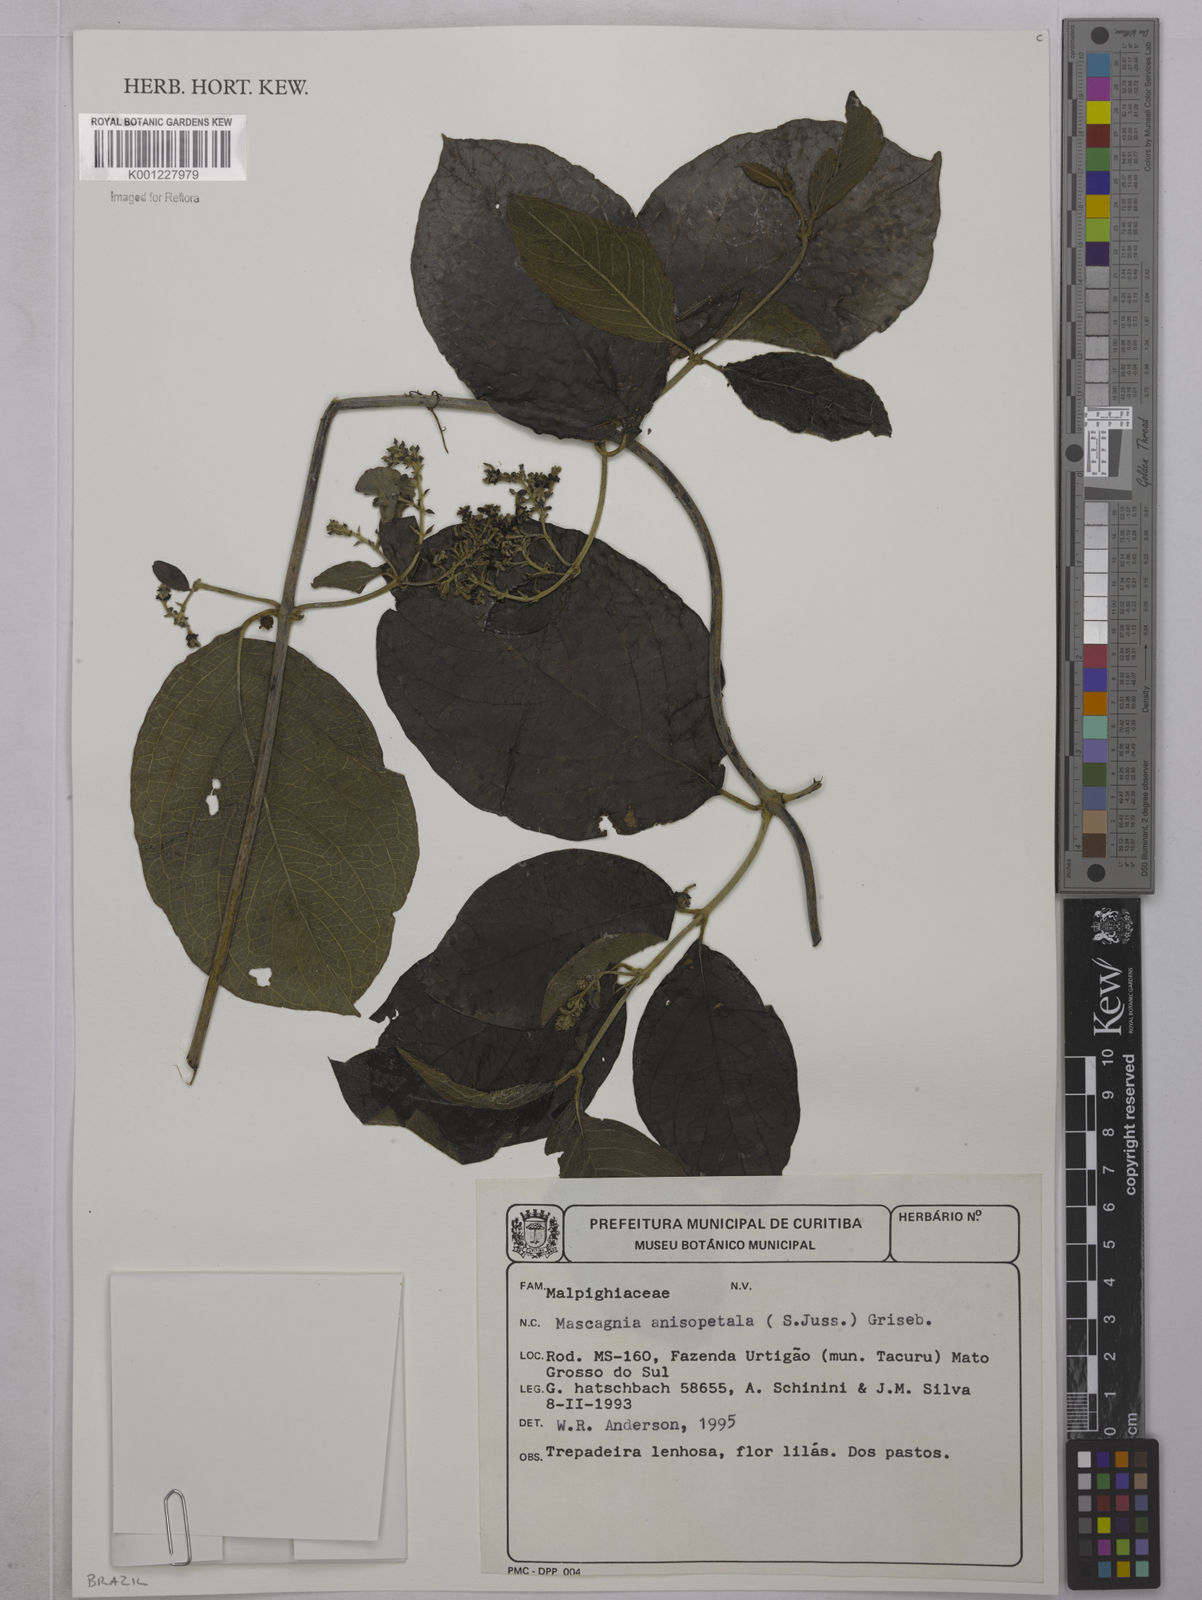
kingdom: Plantae
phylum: Tracheophyta
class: Magnoliopsida
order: Malpighiales
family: Malpighiaceae
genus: Alicia
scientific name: Alicia anisopetala
